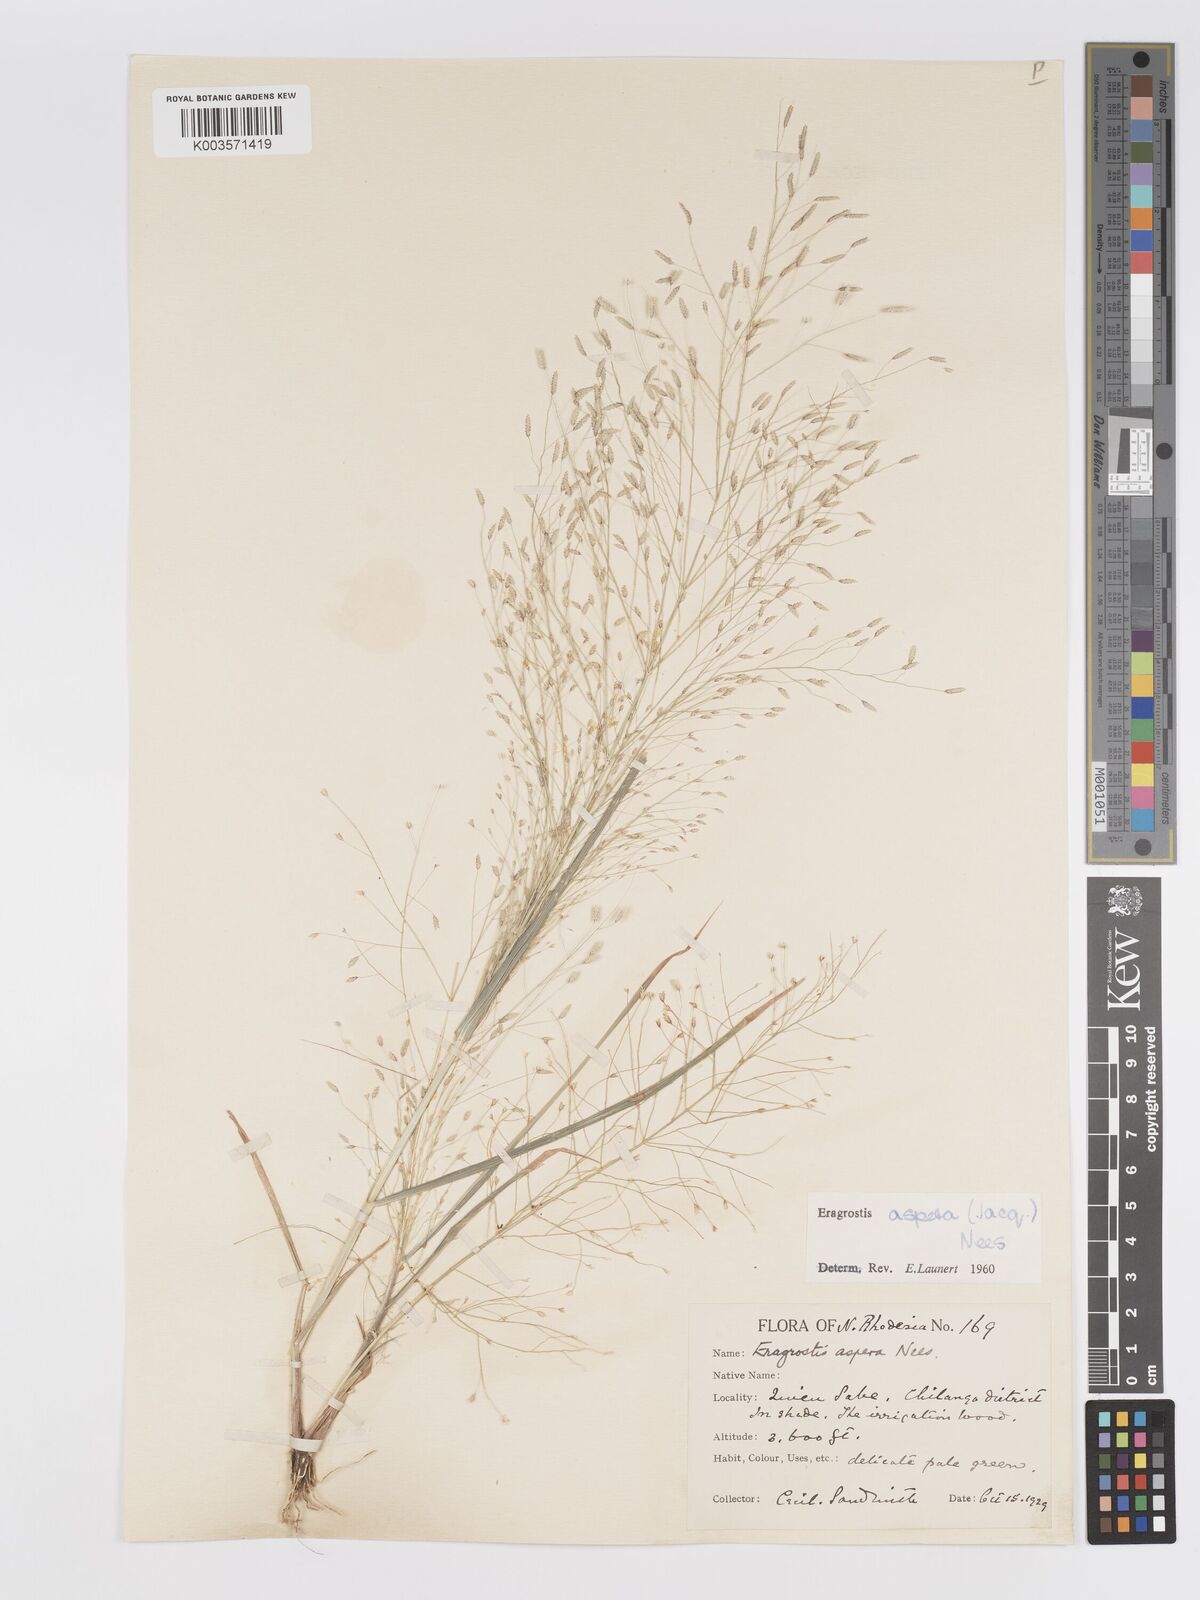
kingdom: Plantae
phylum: Tracheophyta
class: Liliopsida
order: Poales
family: Poaceae
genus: Eragrostis
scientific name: Eragrostis aspera
